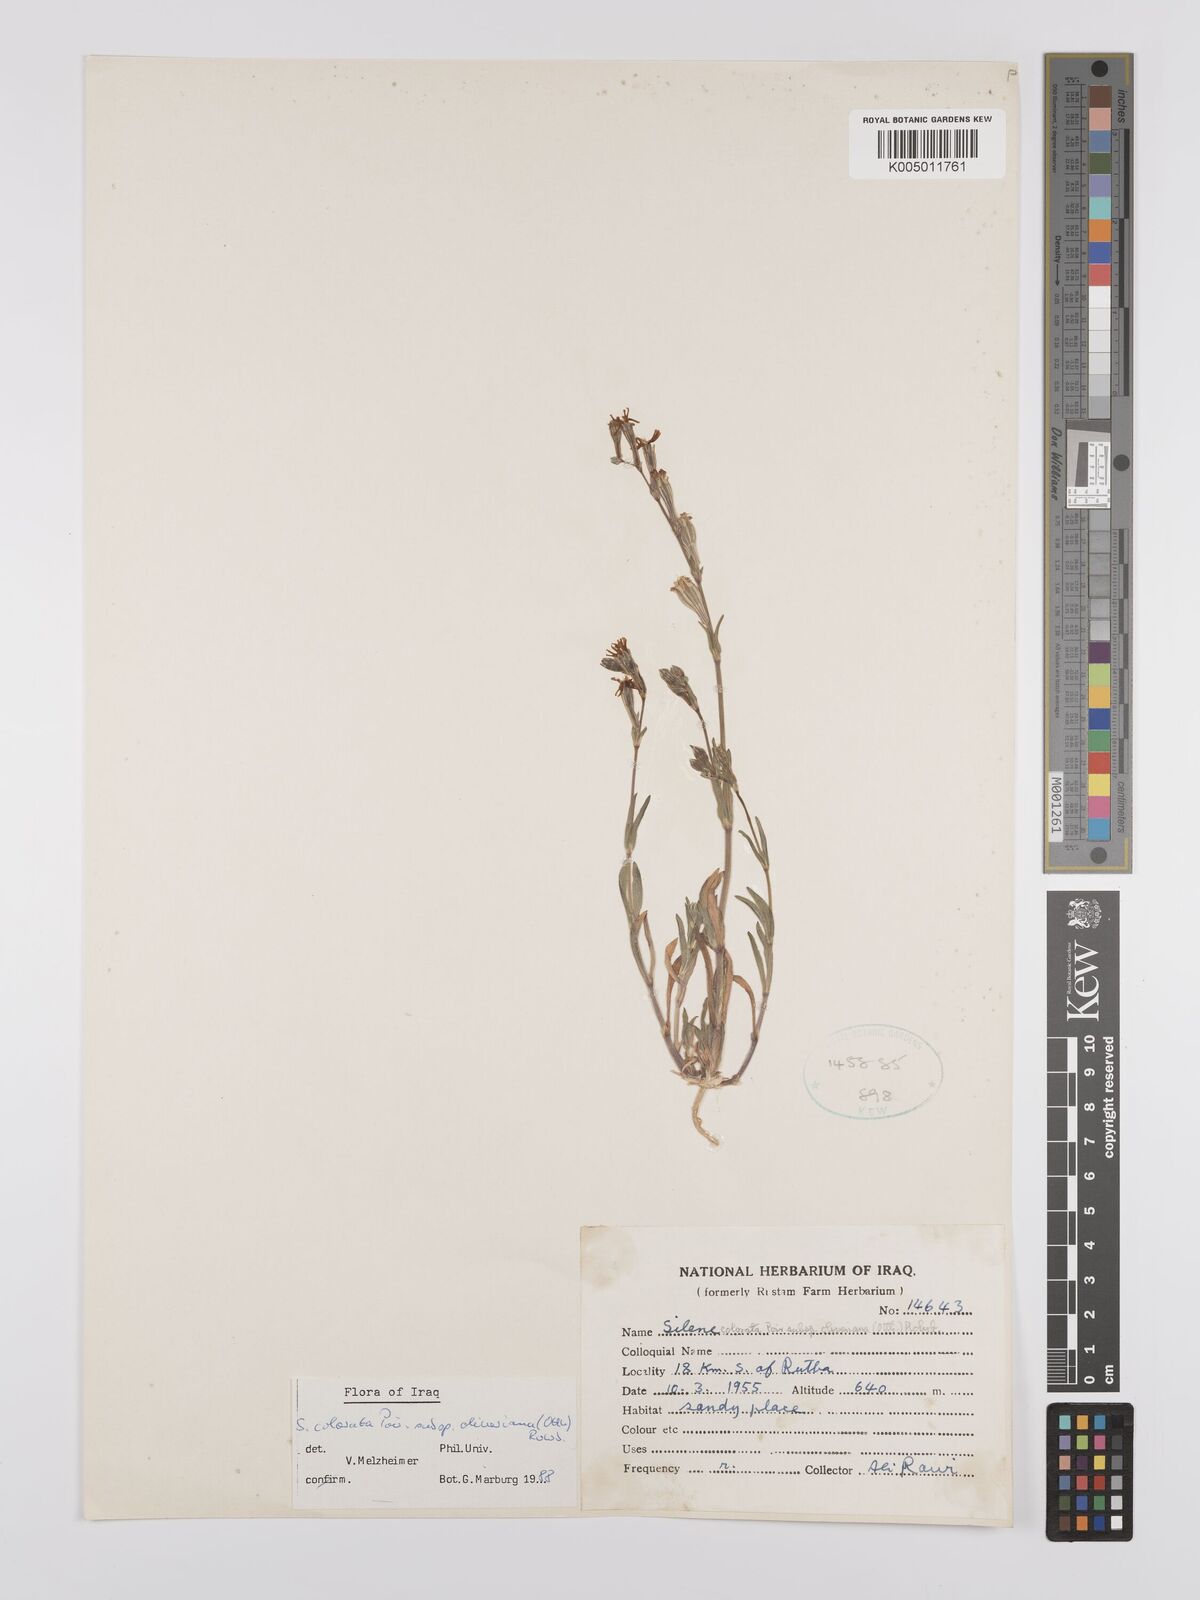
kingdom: Plantae
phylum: Tracheophyta
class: Magnoliopsida
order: Caryophyllales
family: Caryophyllaceae
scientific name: Caryophyllaceae
